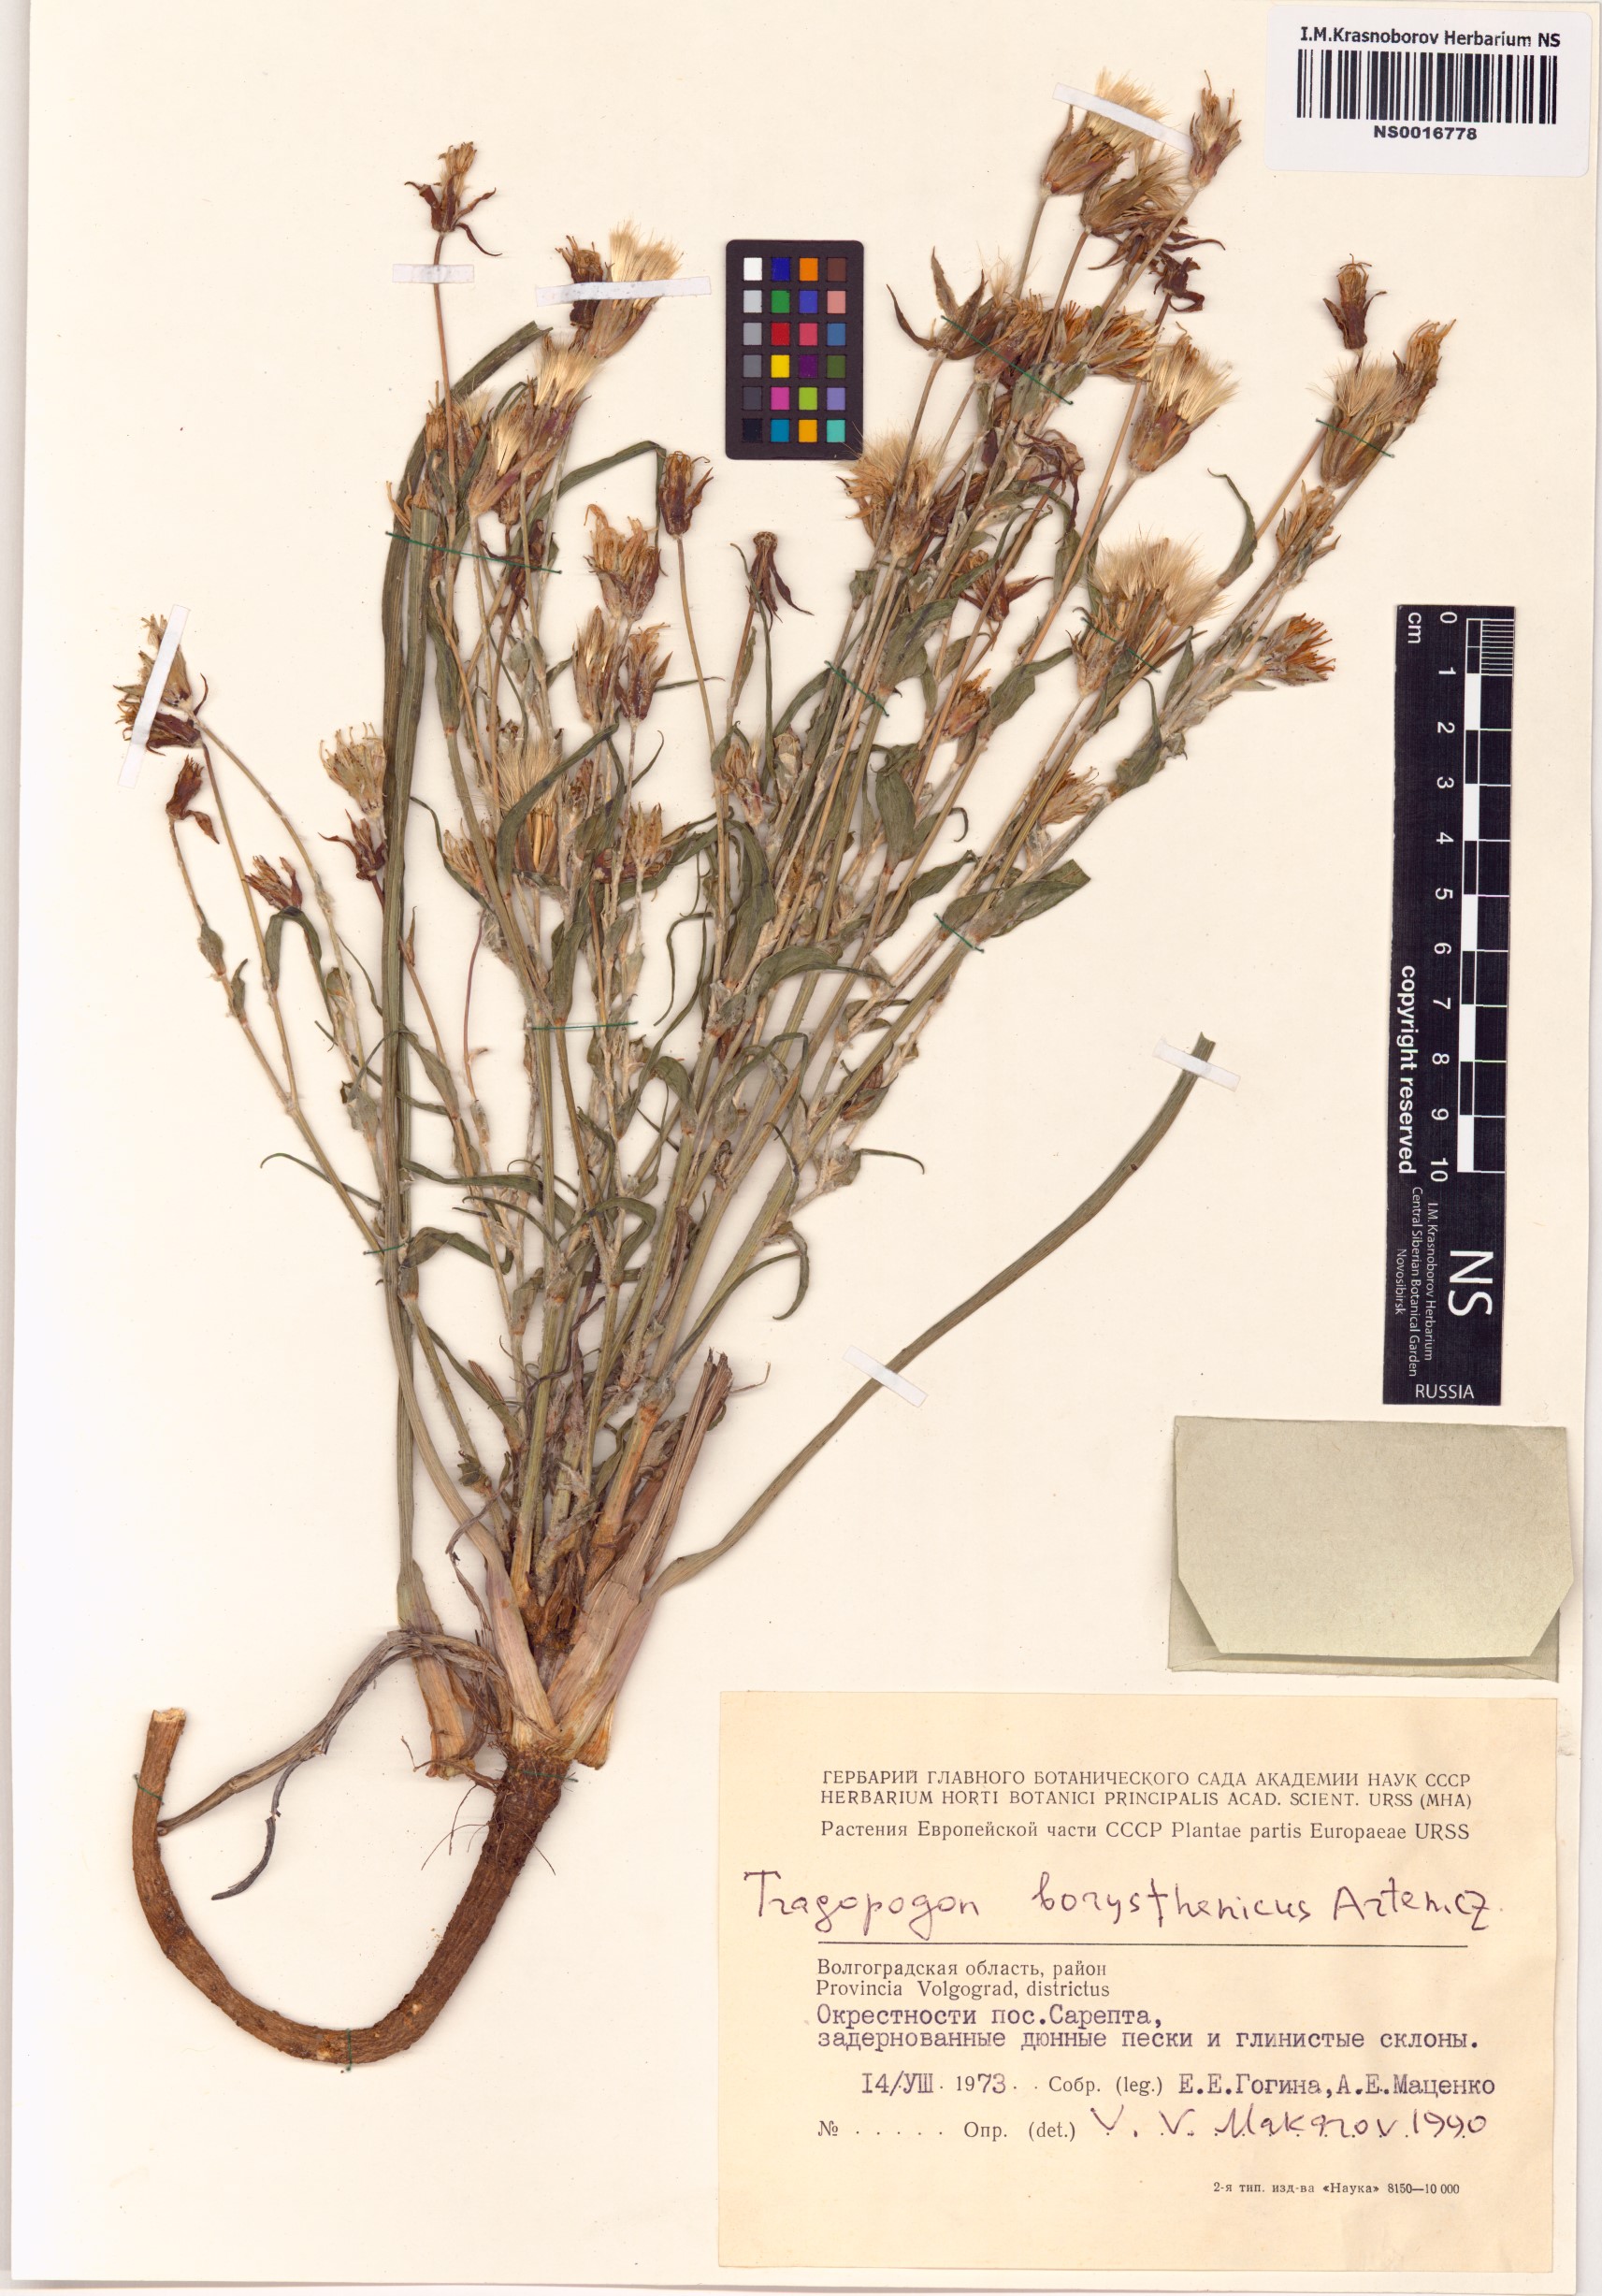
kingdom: Plantae
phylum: Tracheophyta
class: Magnoliopsida
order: Asterales
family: Asteraceae
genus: Tragopogon
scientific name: Tragopogon borystenicus
